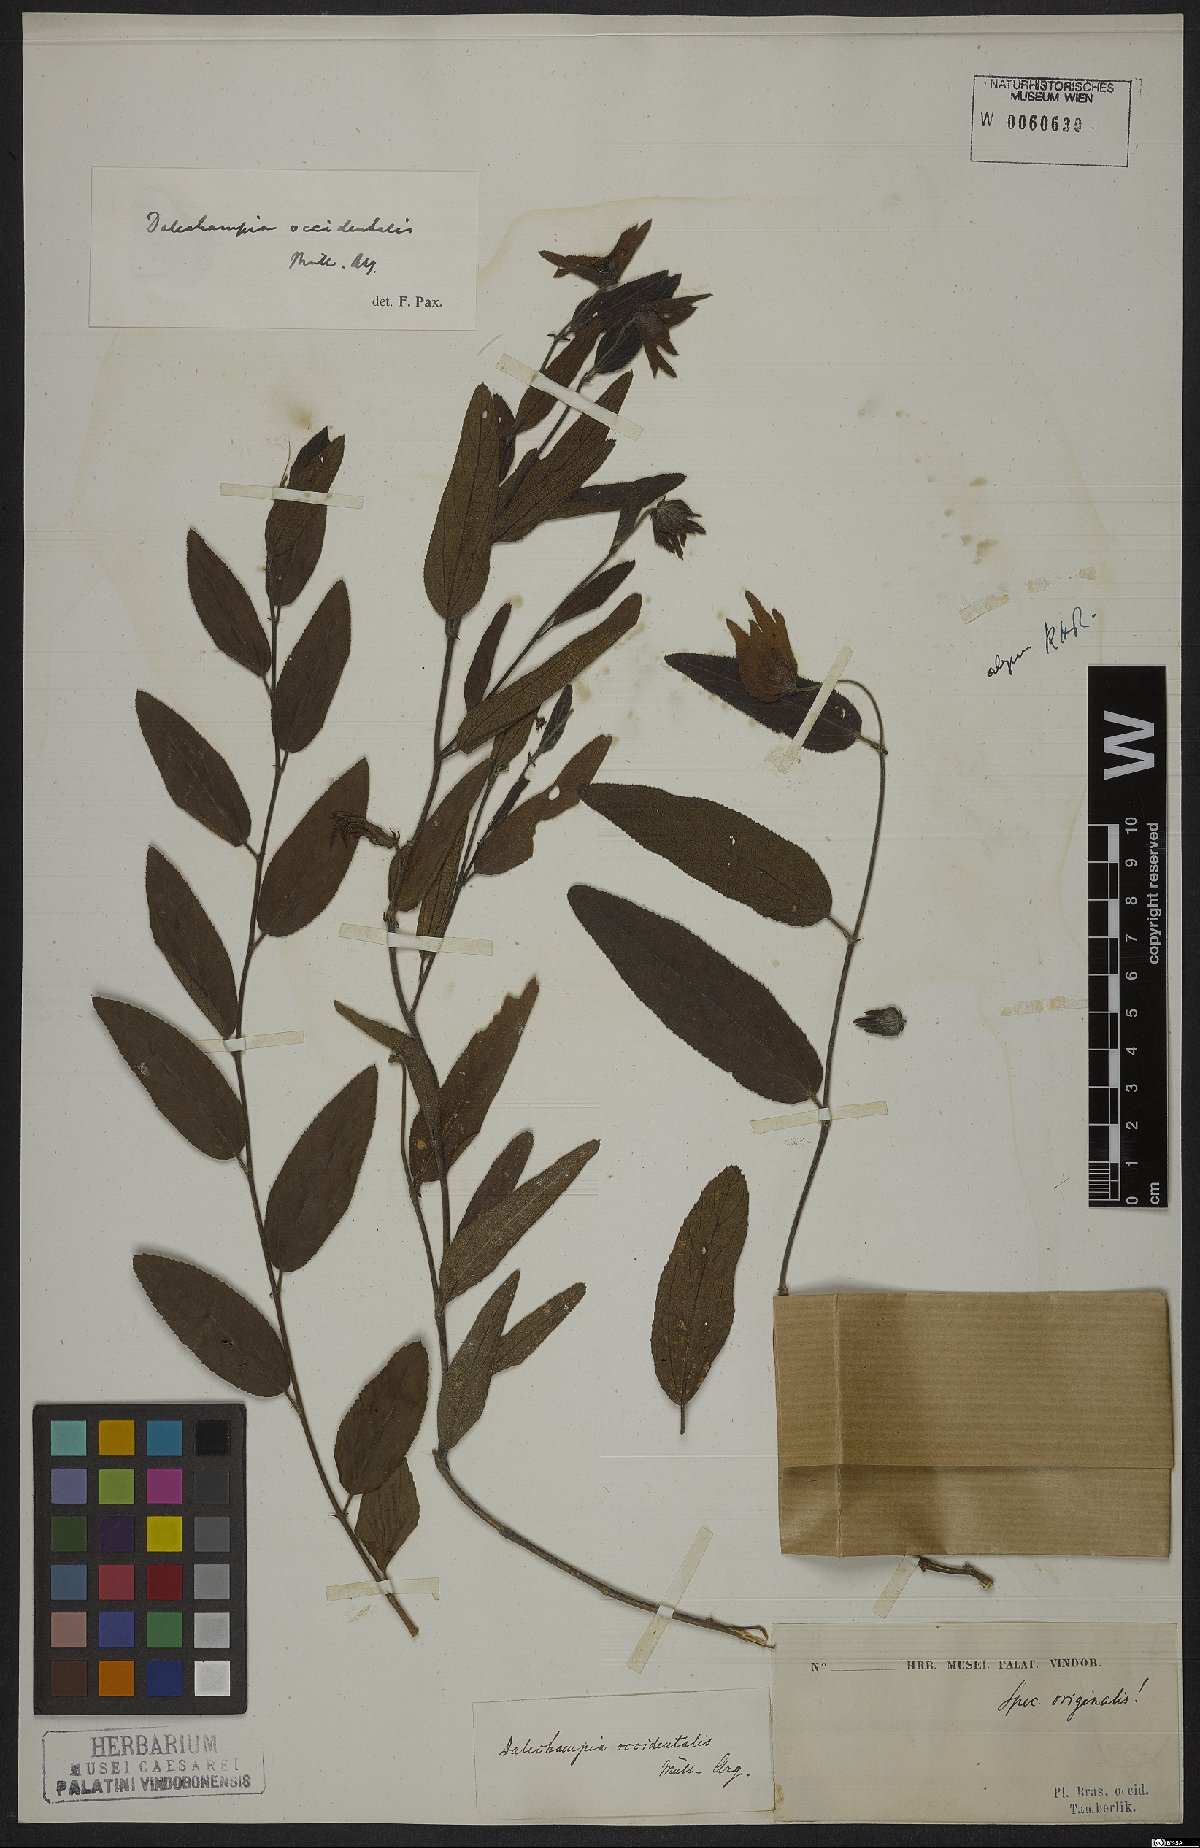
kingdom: Plantae
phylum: Tracheophyta
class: Magnoliopsida
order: Malpighiales
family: Euphorbiaceae
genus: Dalechampia
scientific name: Dalechampia occidentalis
